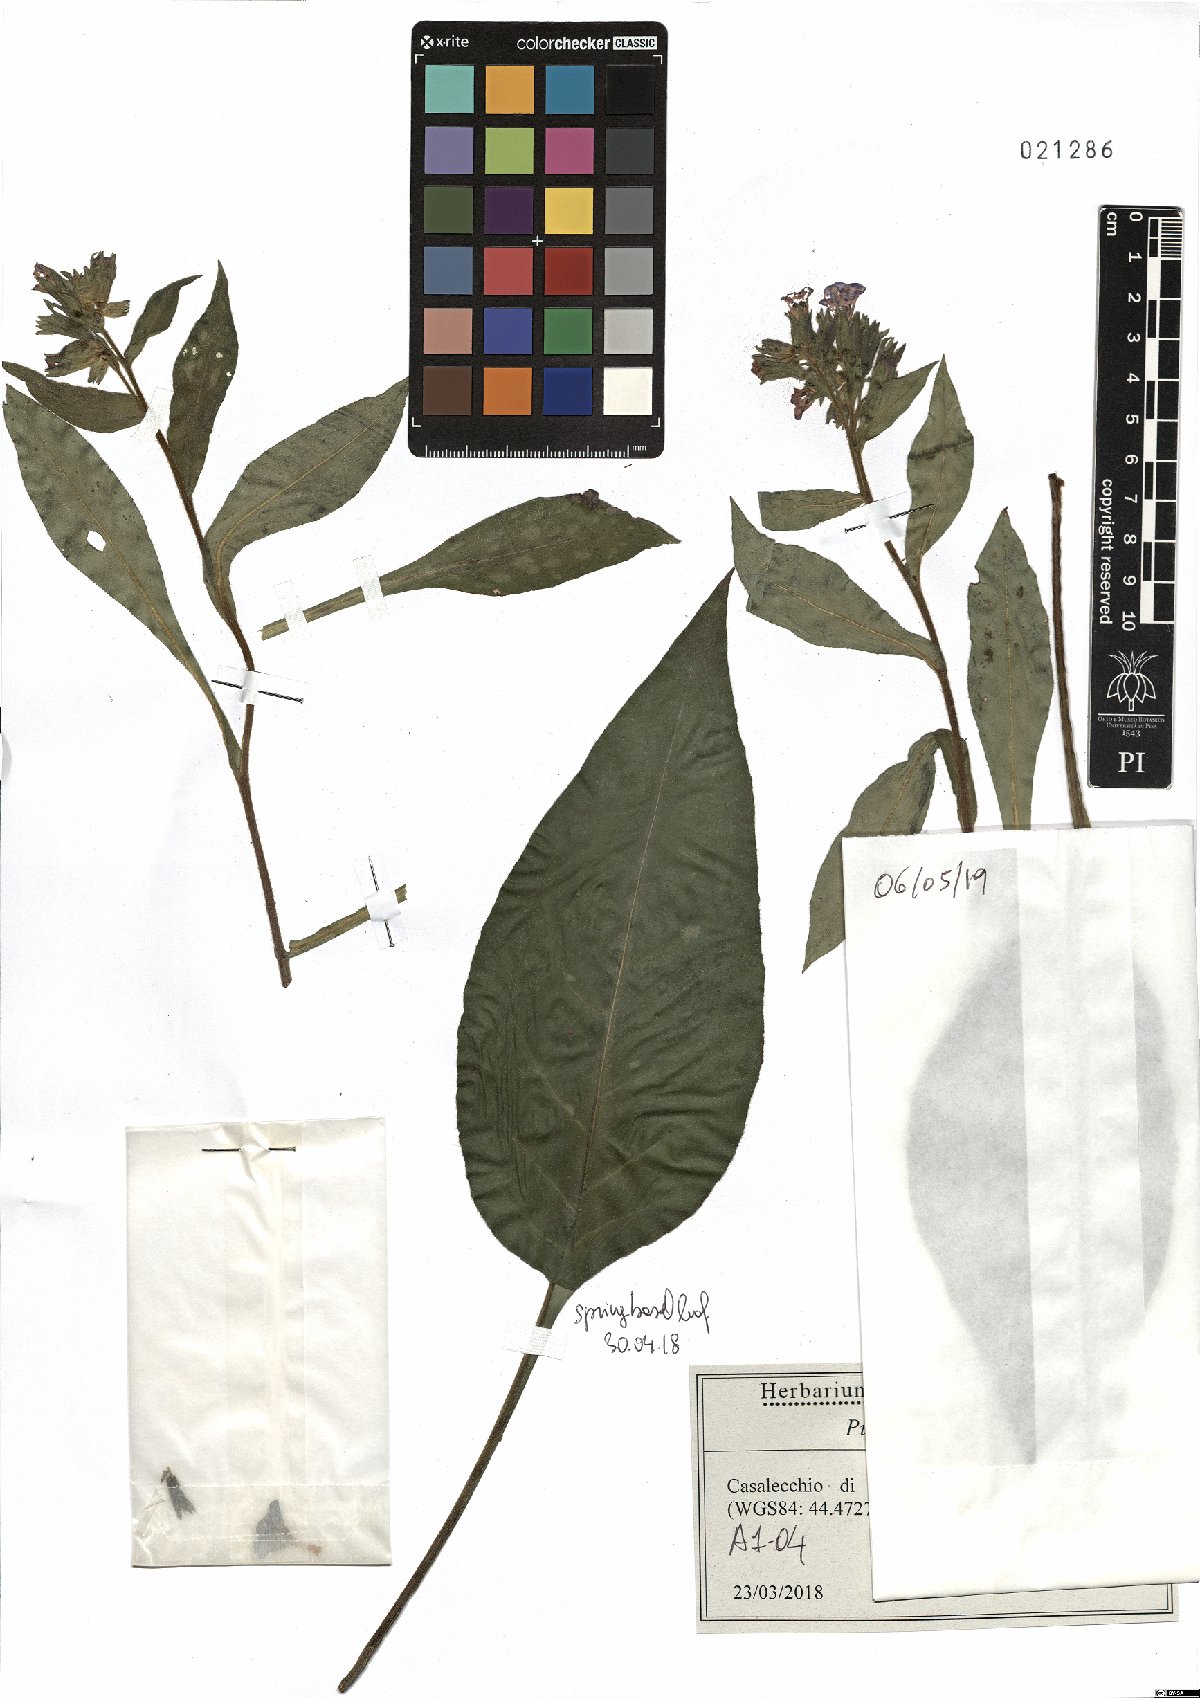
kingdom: Plantae
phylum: Tracheophyta
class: Magnoliopsida
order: Boraginales
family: Boraginaceae
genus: Pulmonaria
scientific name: Pulmonaria hirta
